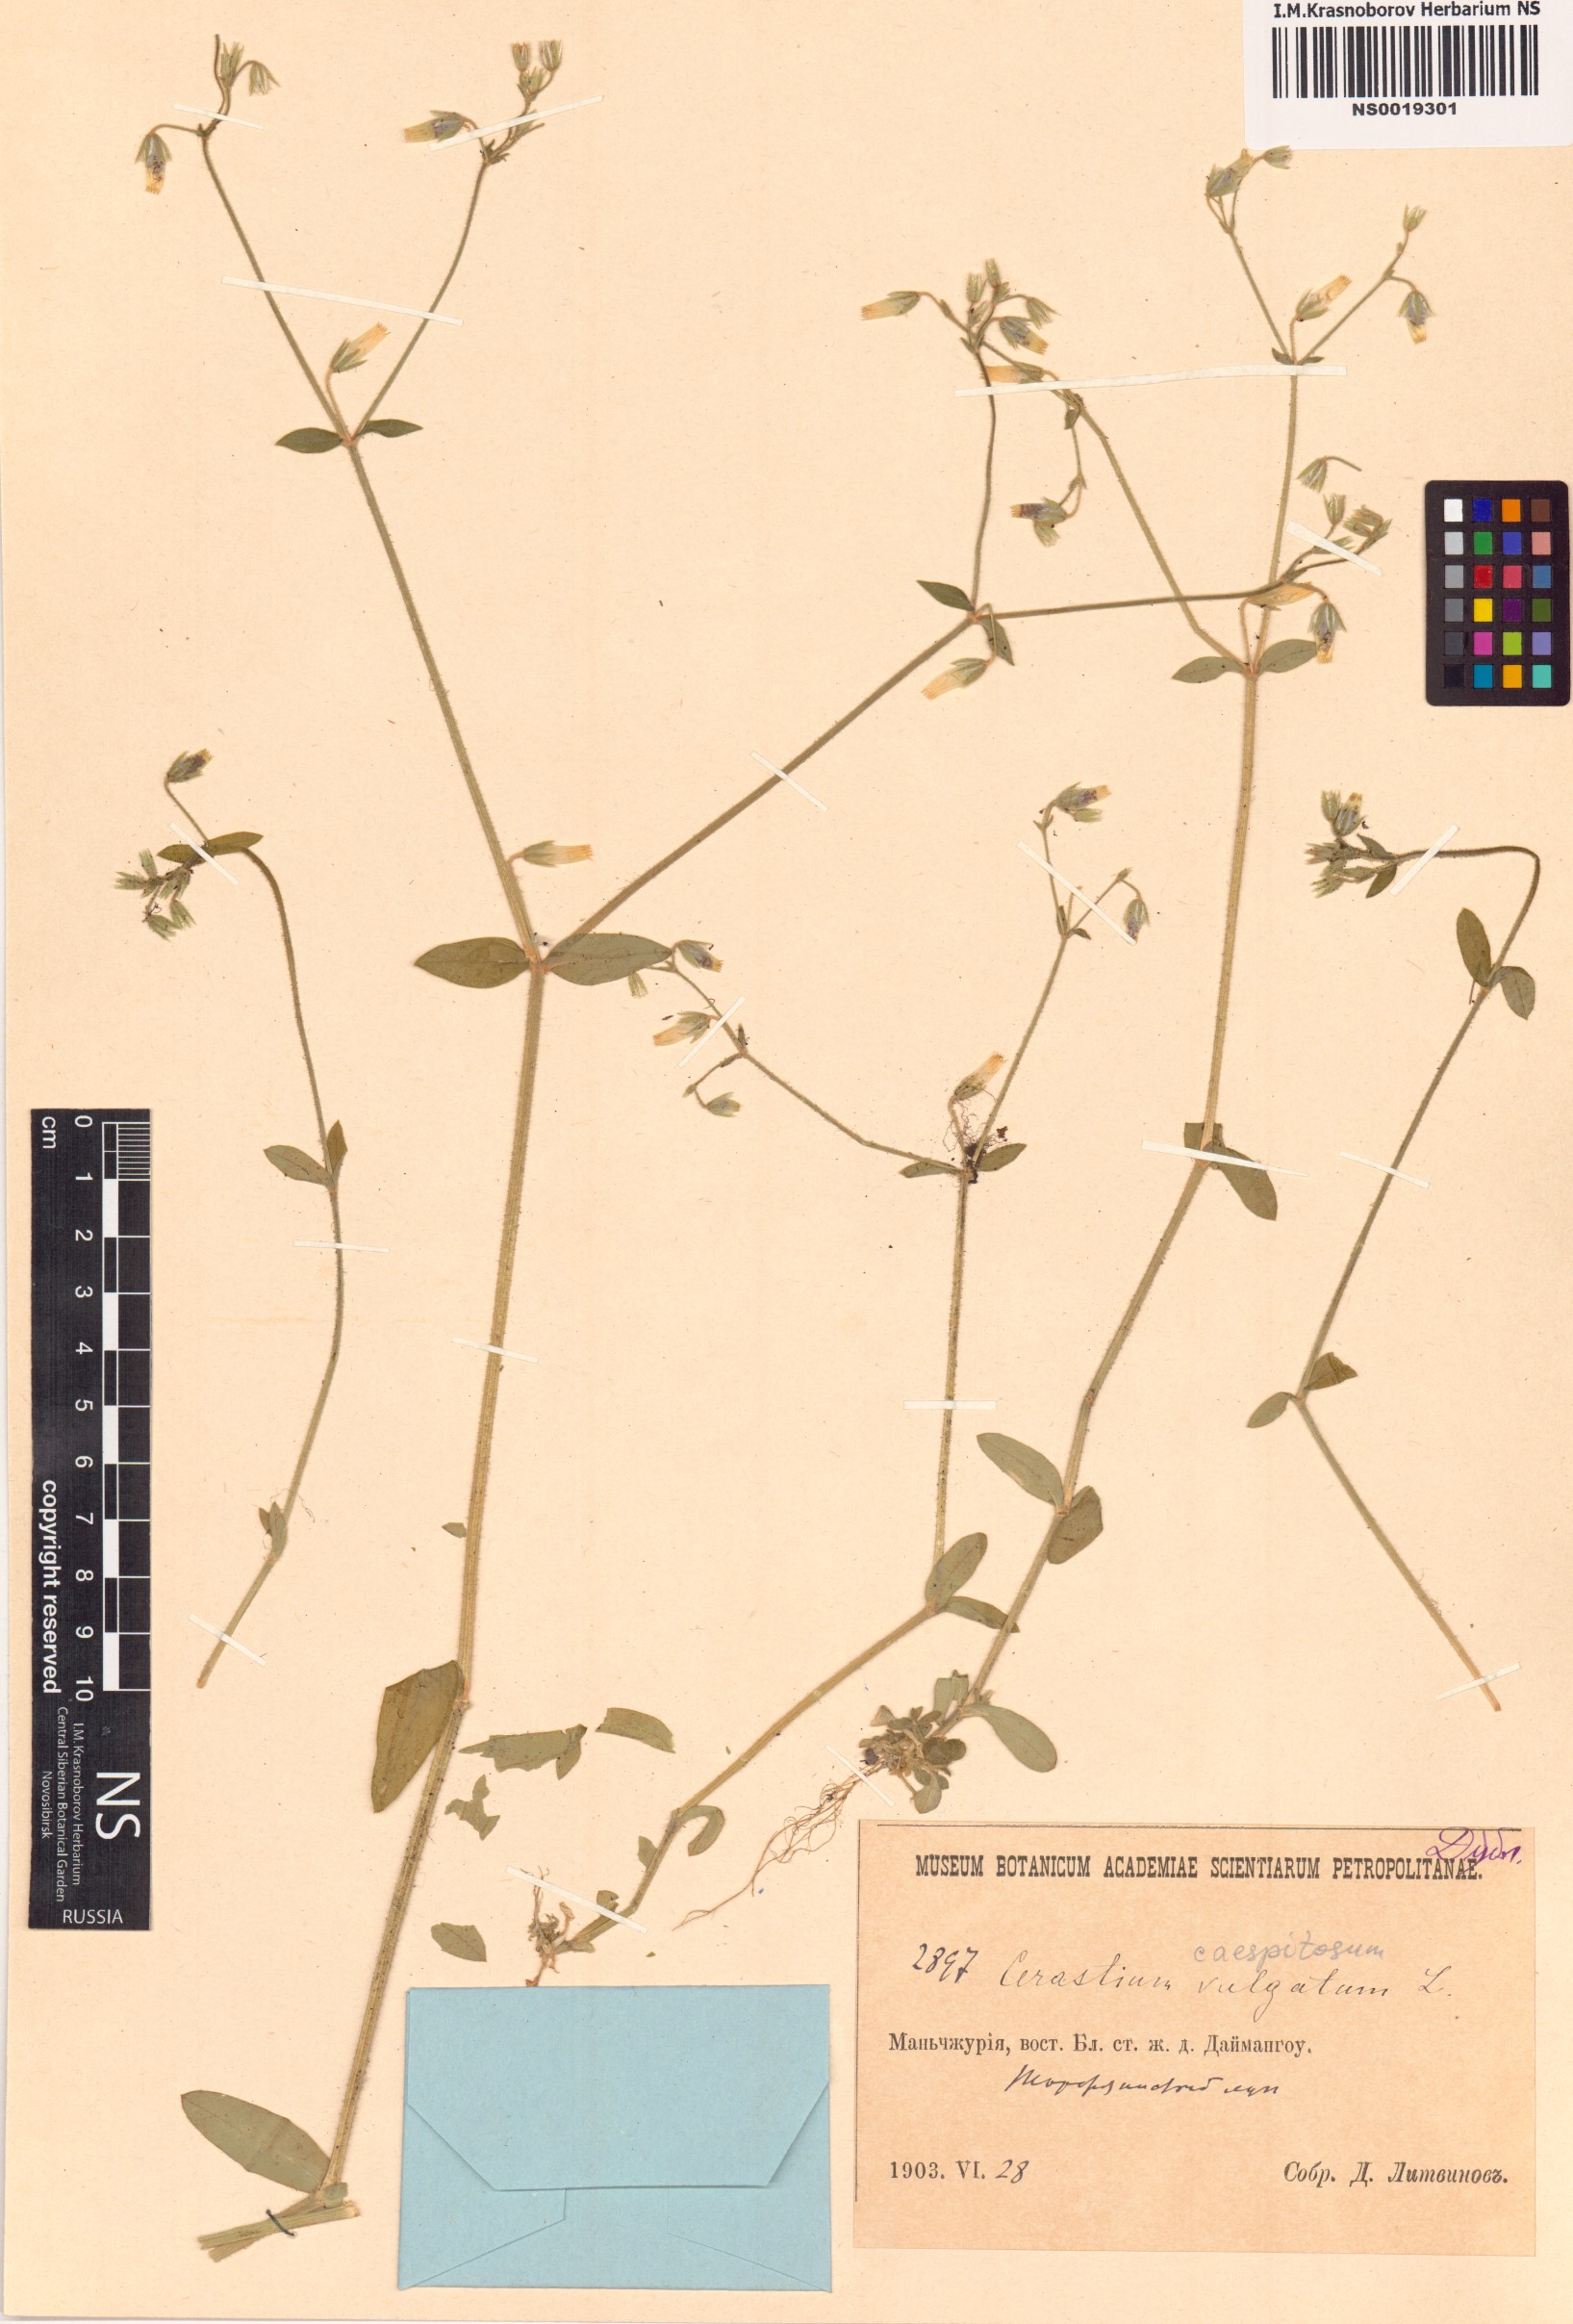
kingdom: Plantae
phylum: Tracheophyta
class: Magnoliopsida
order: Caryophyllales
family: Caryophyllaceae
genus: Cerastium
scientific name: Cerastium
